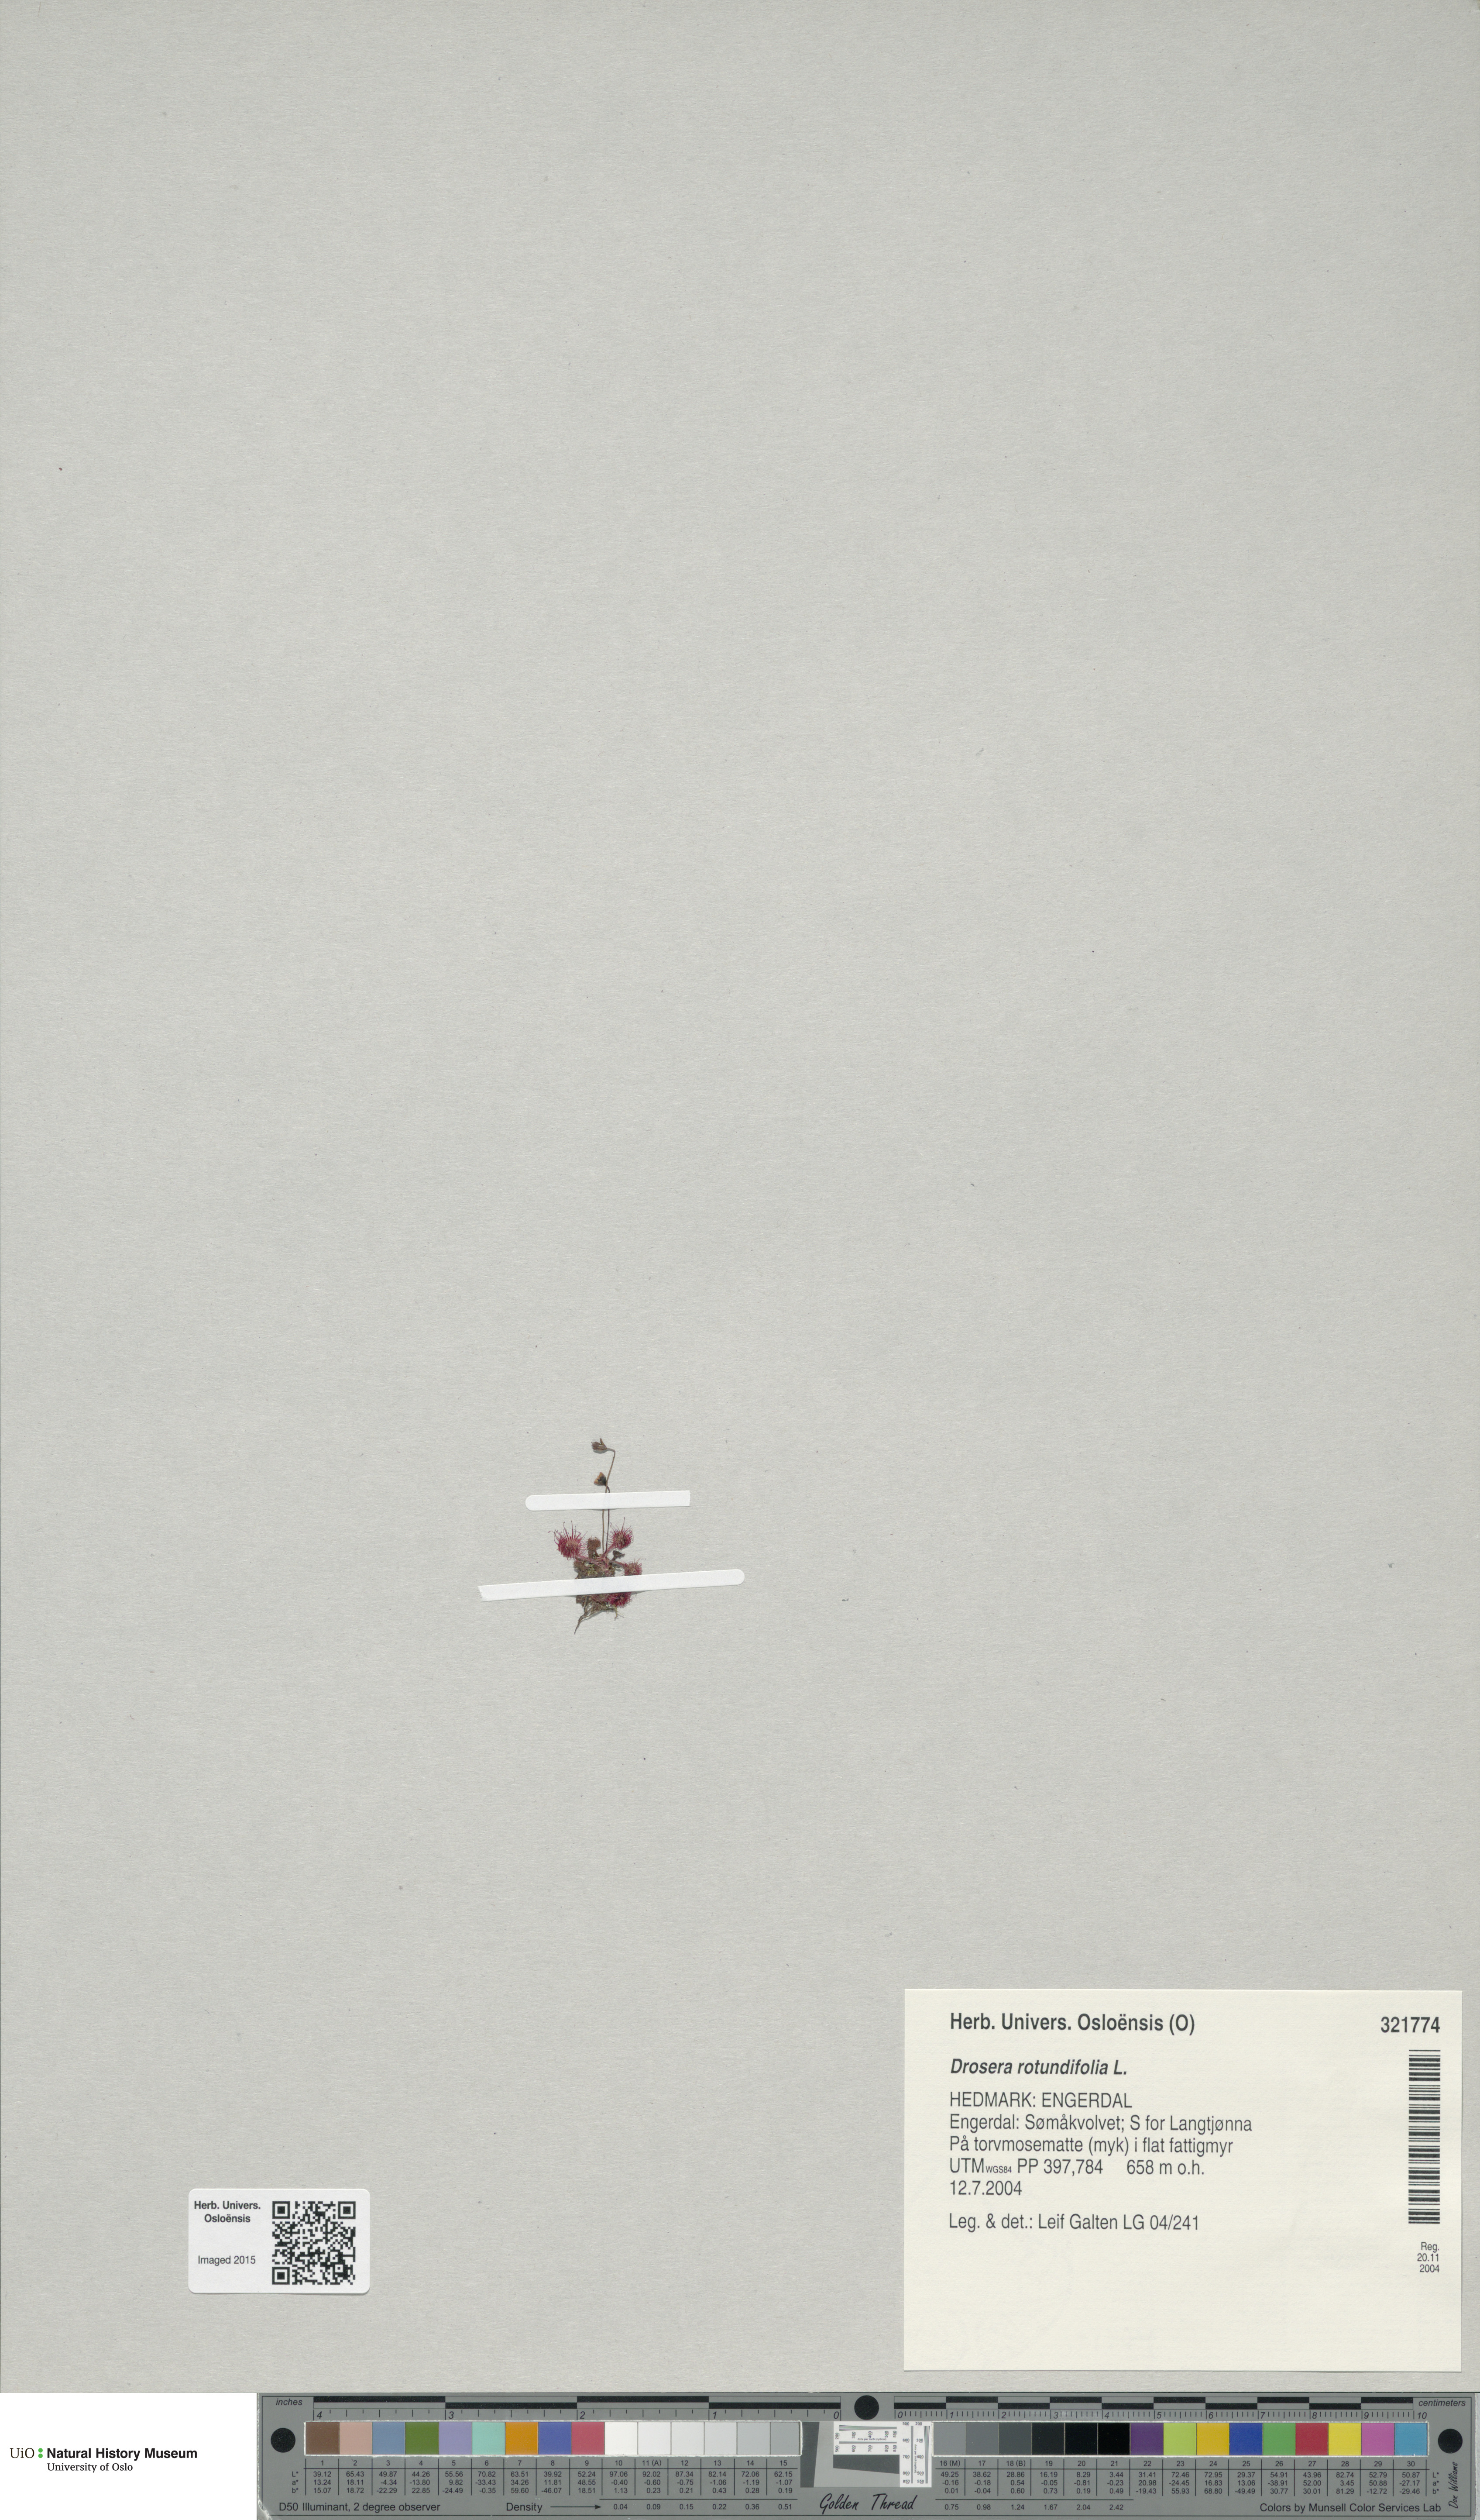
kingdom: Plantae
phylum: Tracheophyta
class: Magnoliopsida
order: Caryophyllales
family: Droseraceae
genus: Drosera
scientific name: Drosera rotundifolia
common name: Round-leaved sundew
